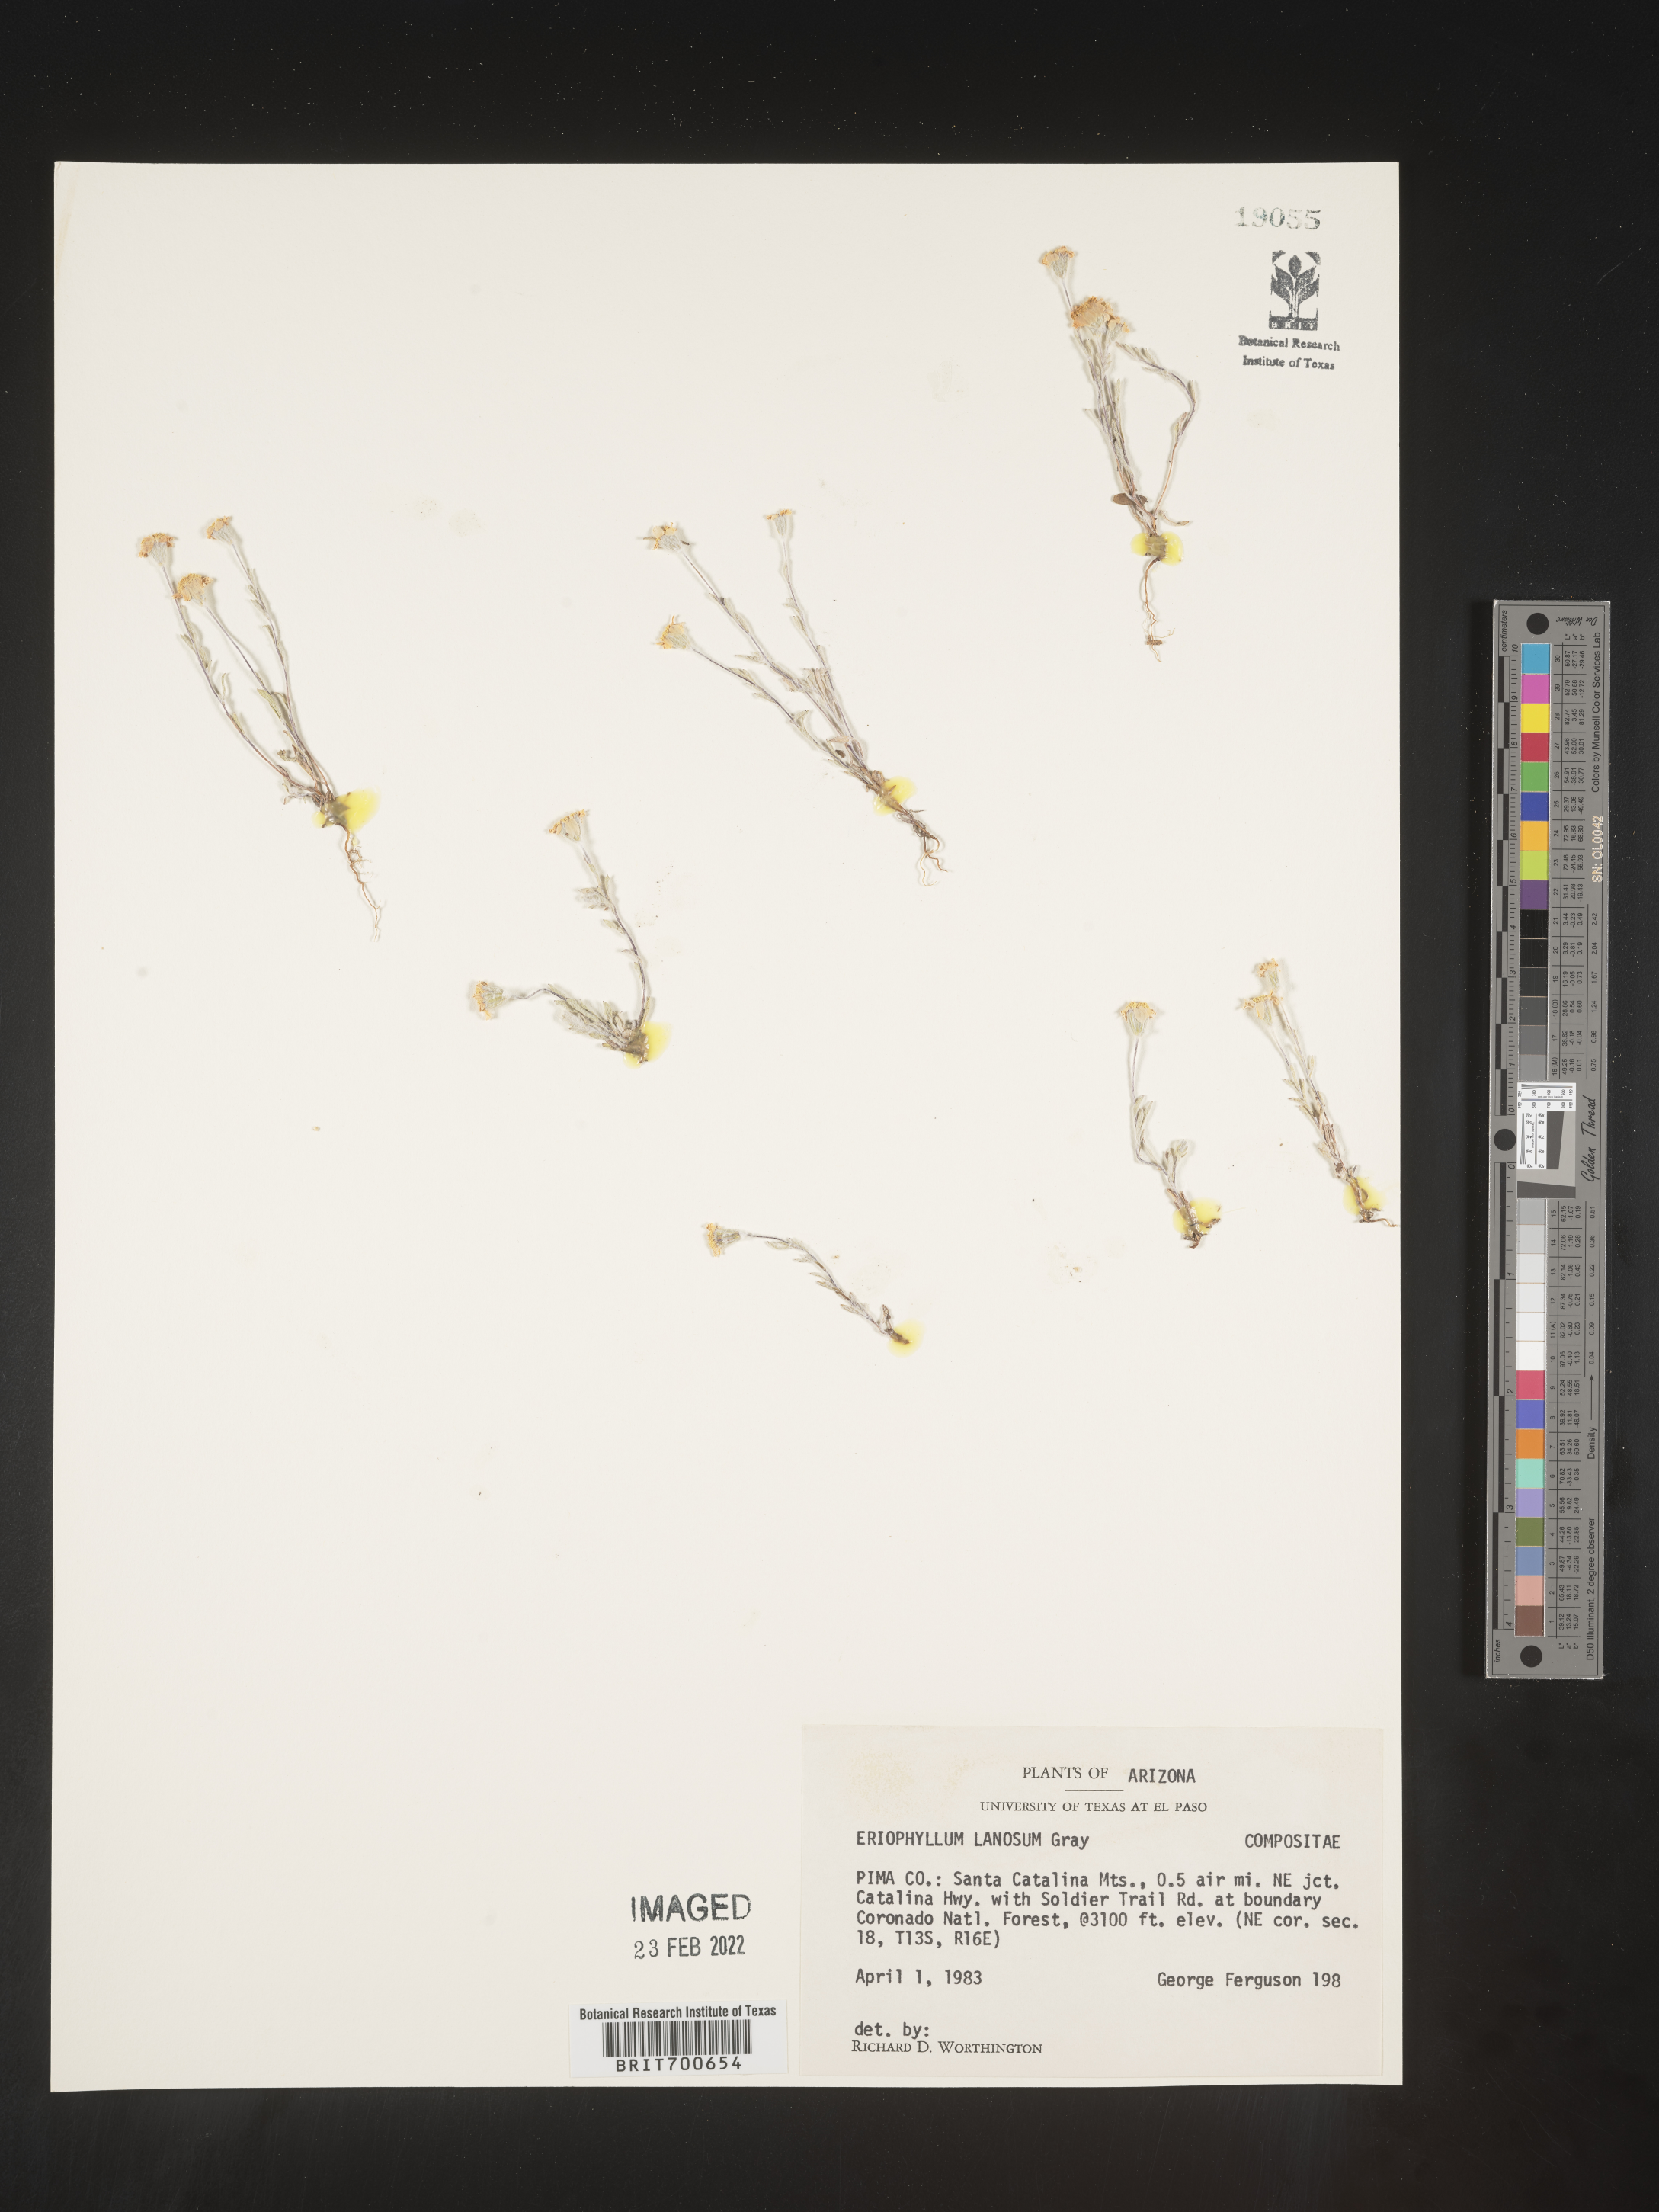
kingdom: Plantae
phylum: Tracheophyta
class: Magnoliopsida
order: Asterales
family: Asteraceae
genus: Eriophyllum
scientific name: Eriophyllum lanosum
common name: White easter-bonnets
